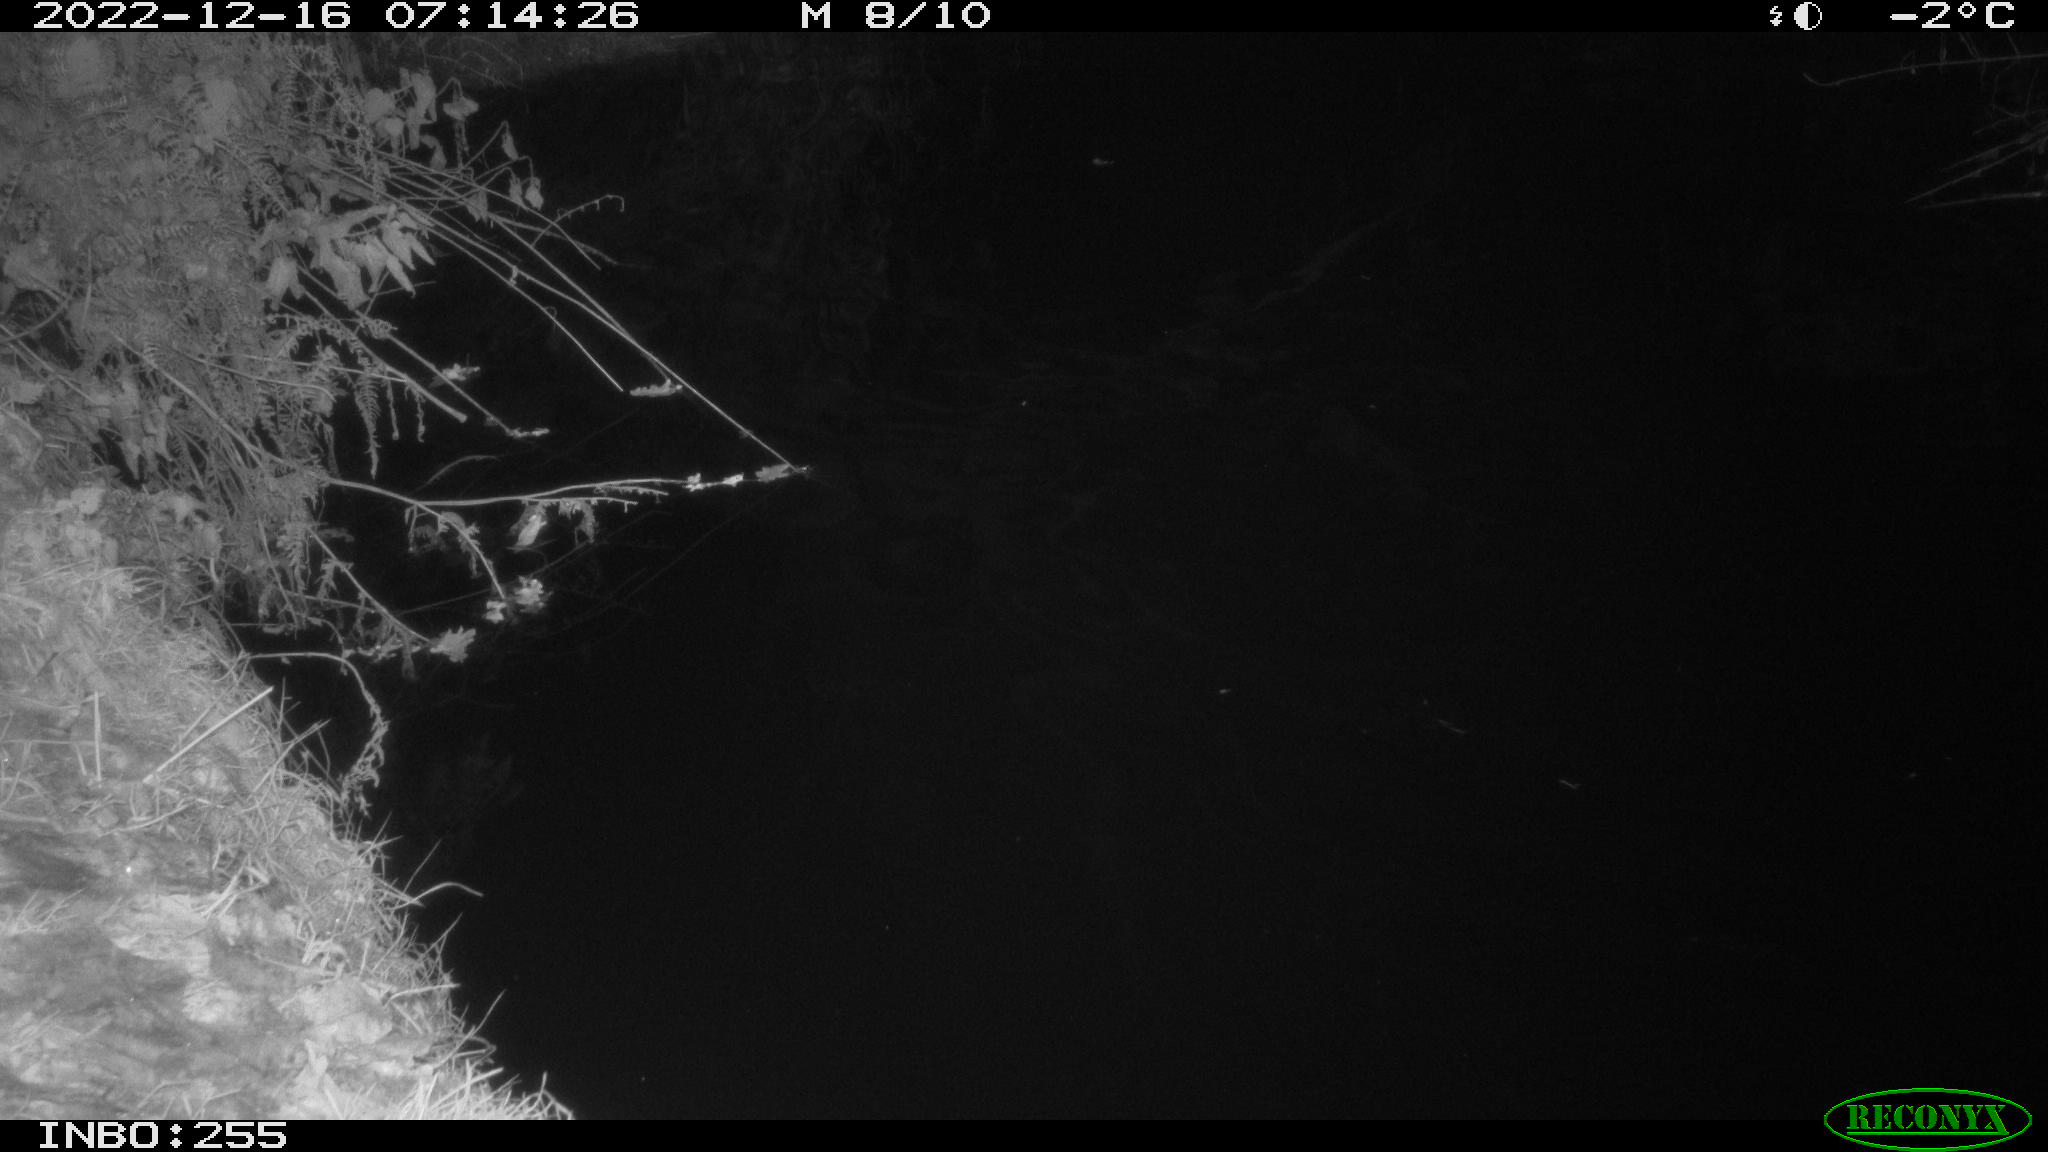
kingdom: Animalia
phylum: Chordata
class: Aves
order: Anseriformes
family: Anatidae
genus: Anas
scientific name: Anas
